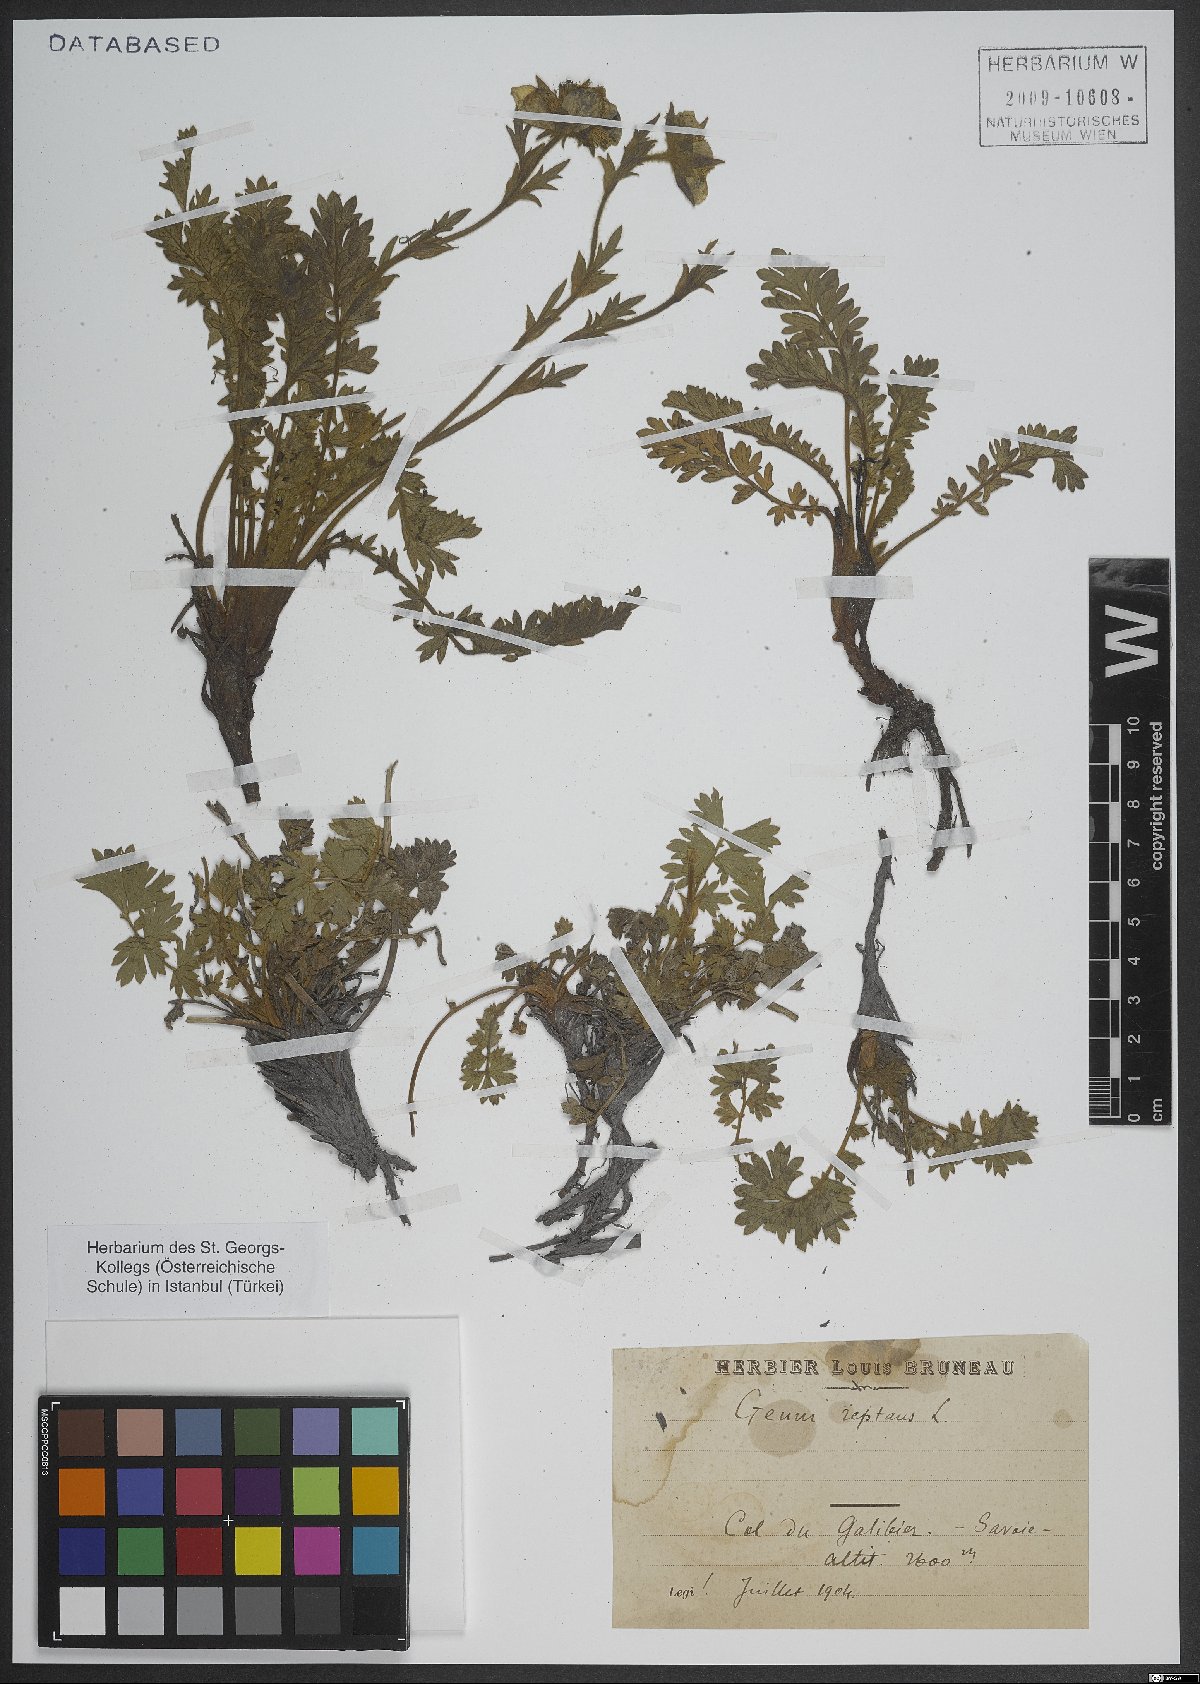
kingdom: Plantae
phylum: Tracheophyta
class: Magnoliopsida
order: Rosales
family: Rosaceae
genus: Geum
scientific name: Geum reptans
